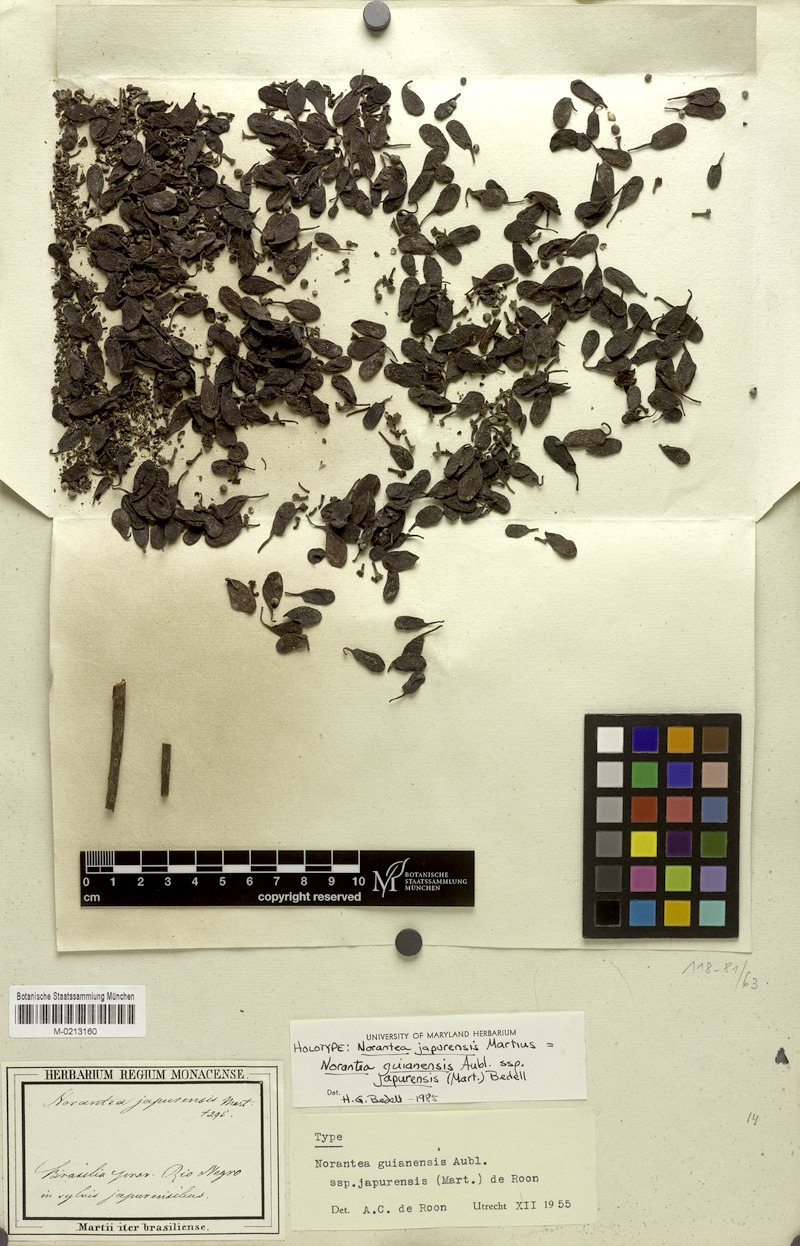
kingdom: Plantae
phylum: Tracheophyta
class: Magnoliopsida
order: Ericales
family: Marcgraviaceae
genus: Norantea
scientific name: Norantea guianensis
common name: Red hot poker vine
